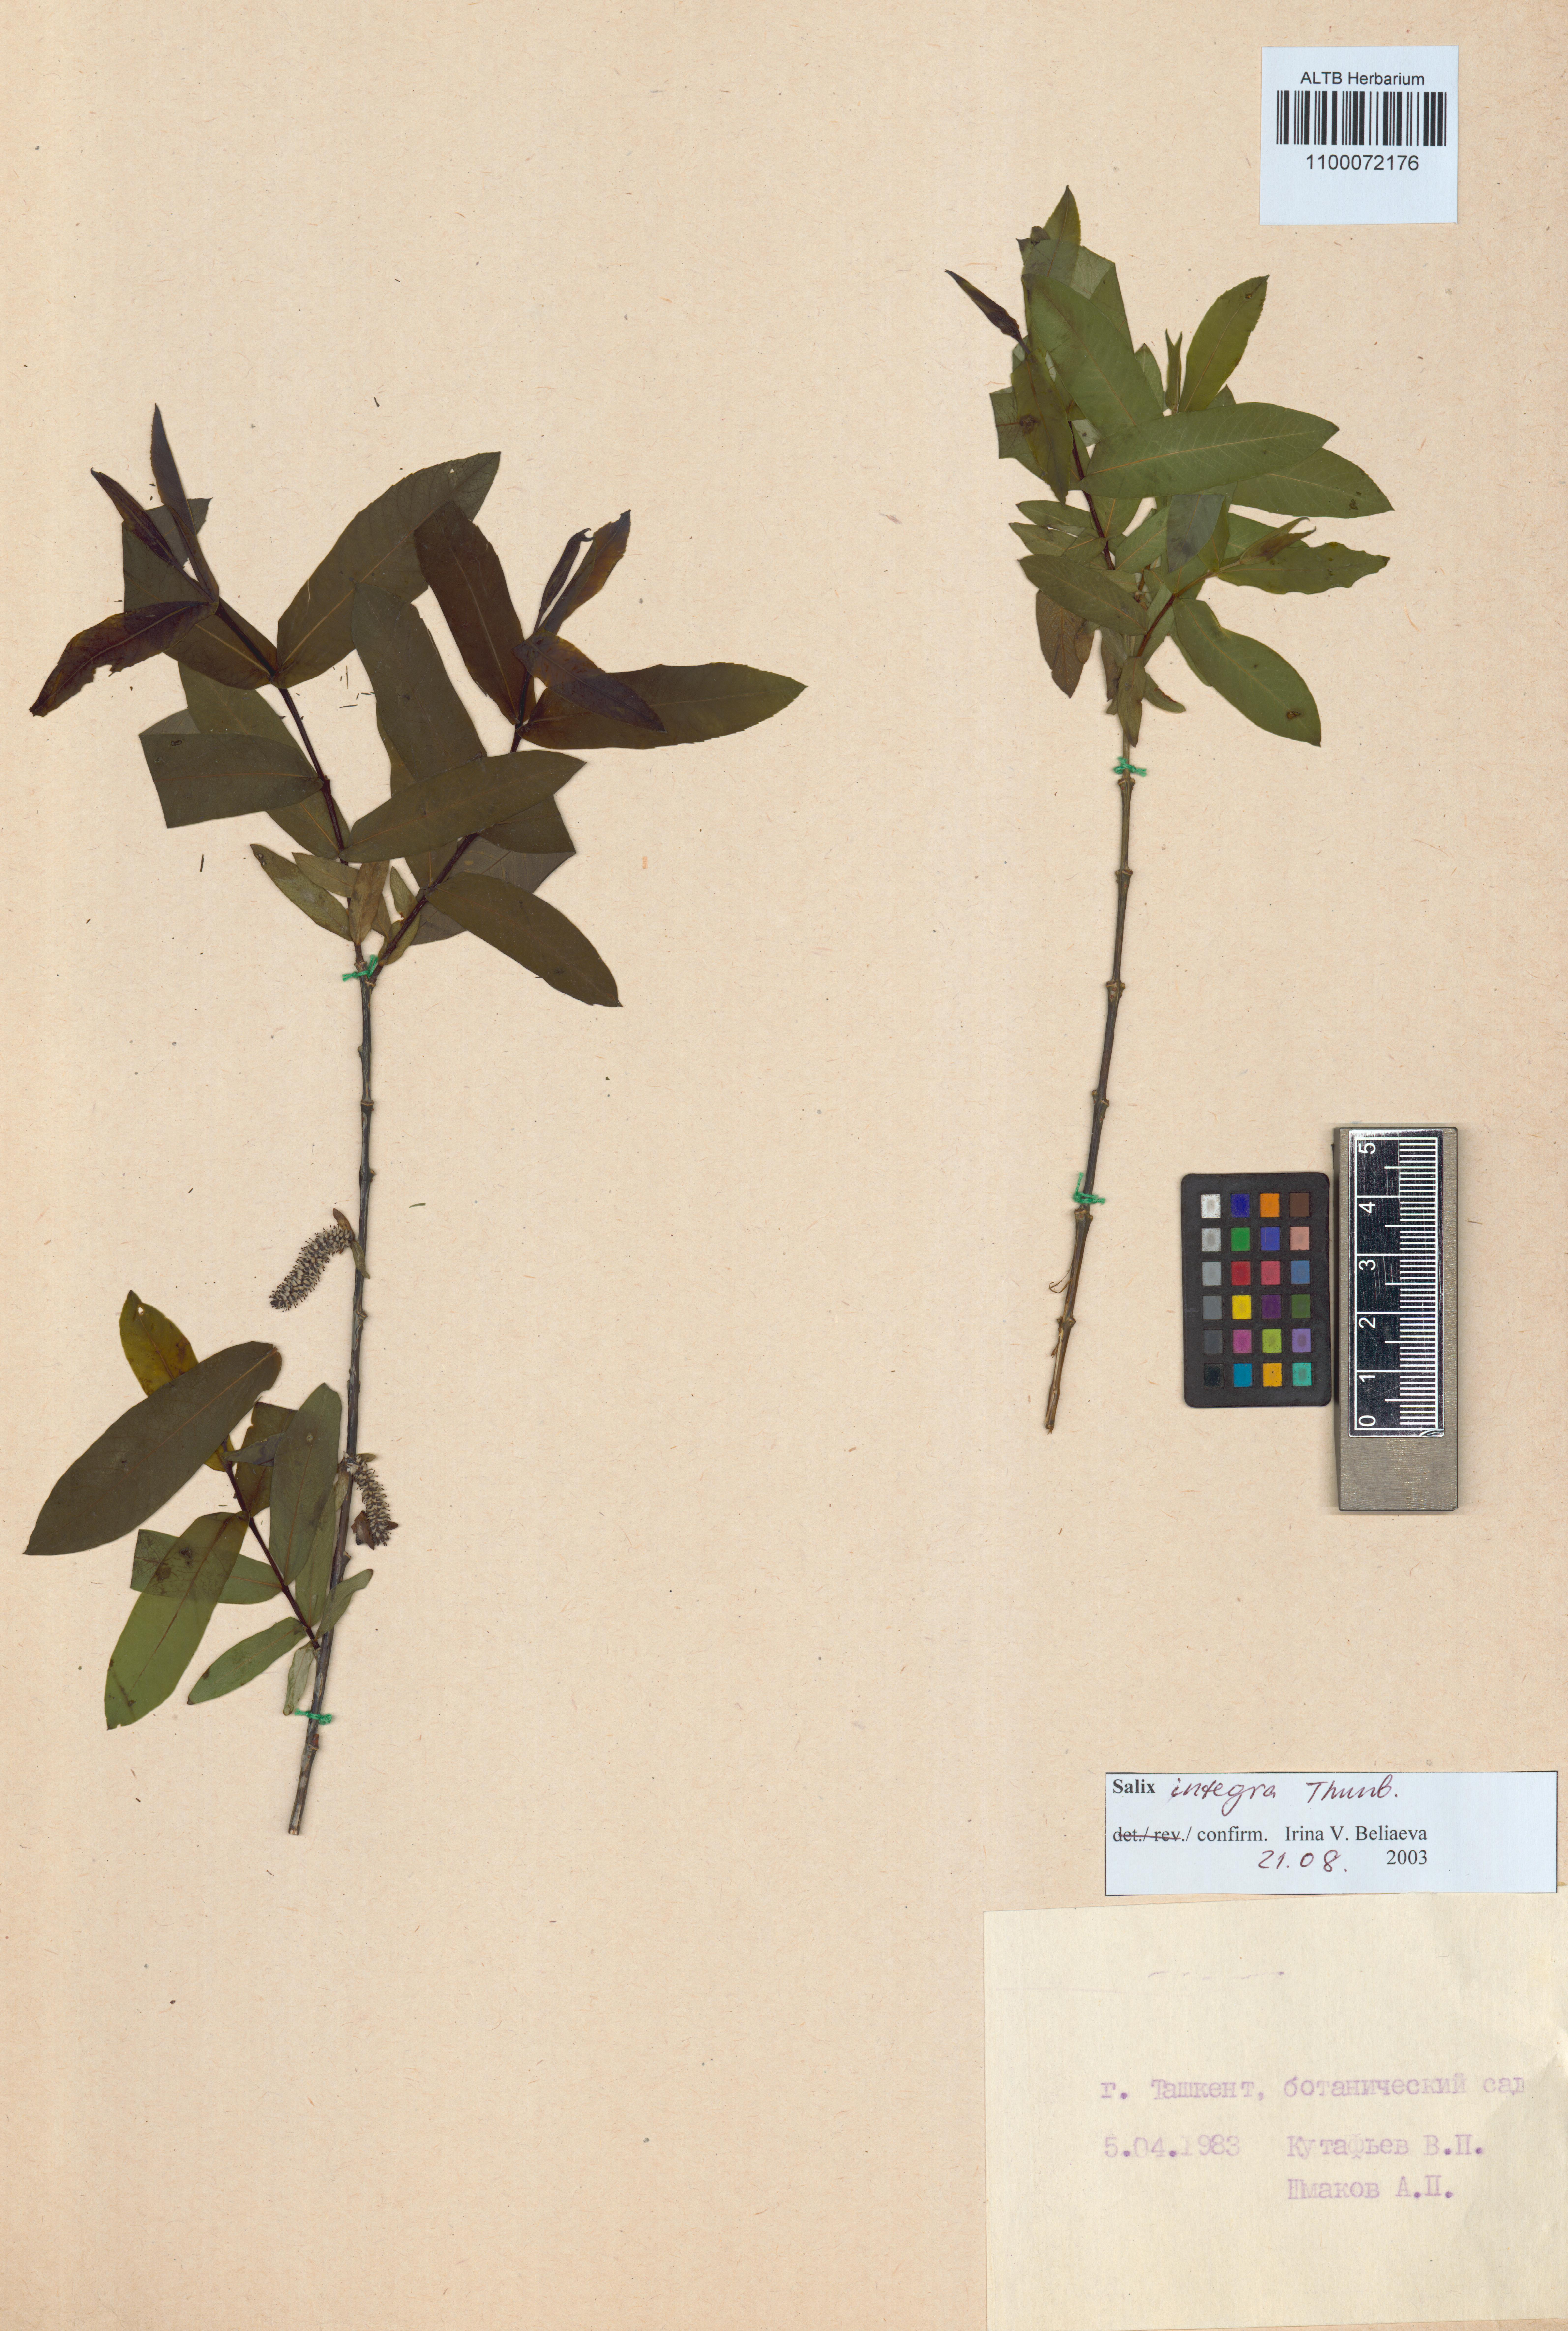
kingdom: Plantae
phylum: Tracheophyta
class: Magnoliopsida
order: Malpighiales
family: Salicaceae
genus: Salix
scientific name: Salix integra
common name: Dappled willow
